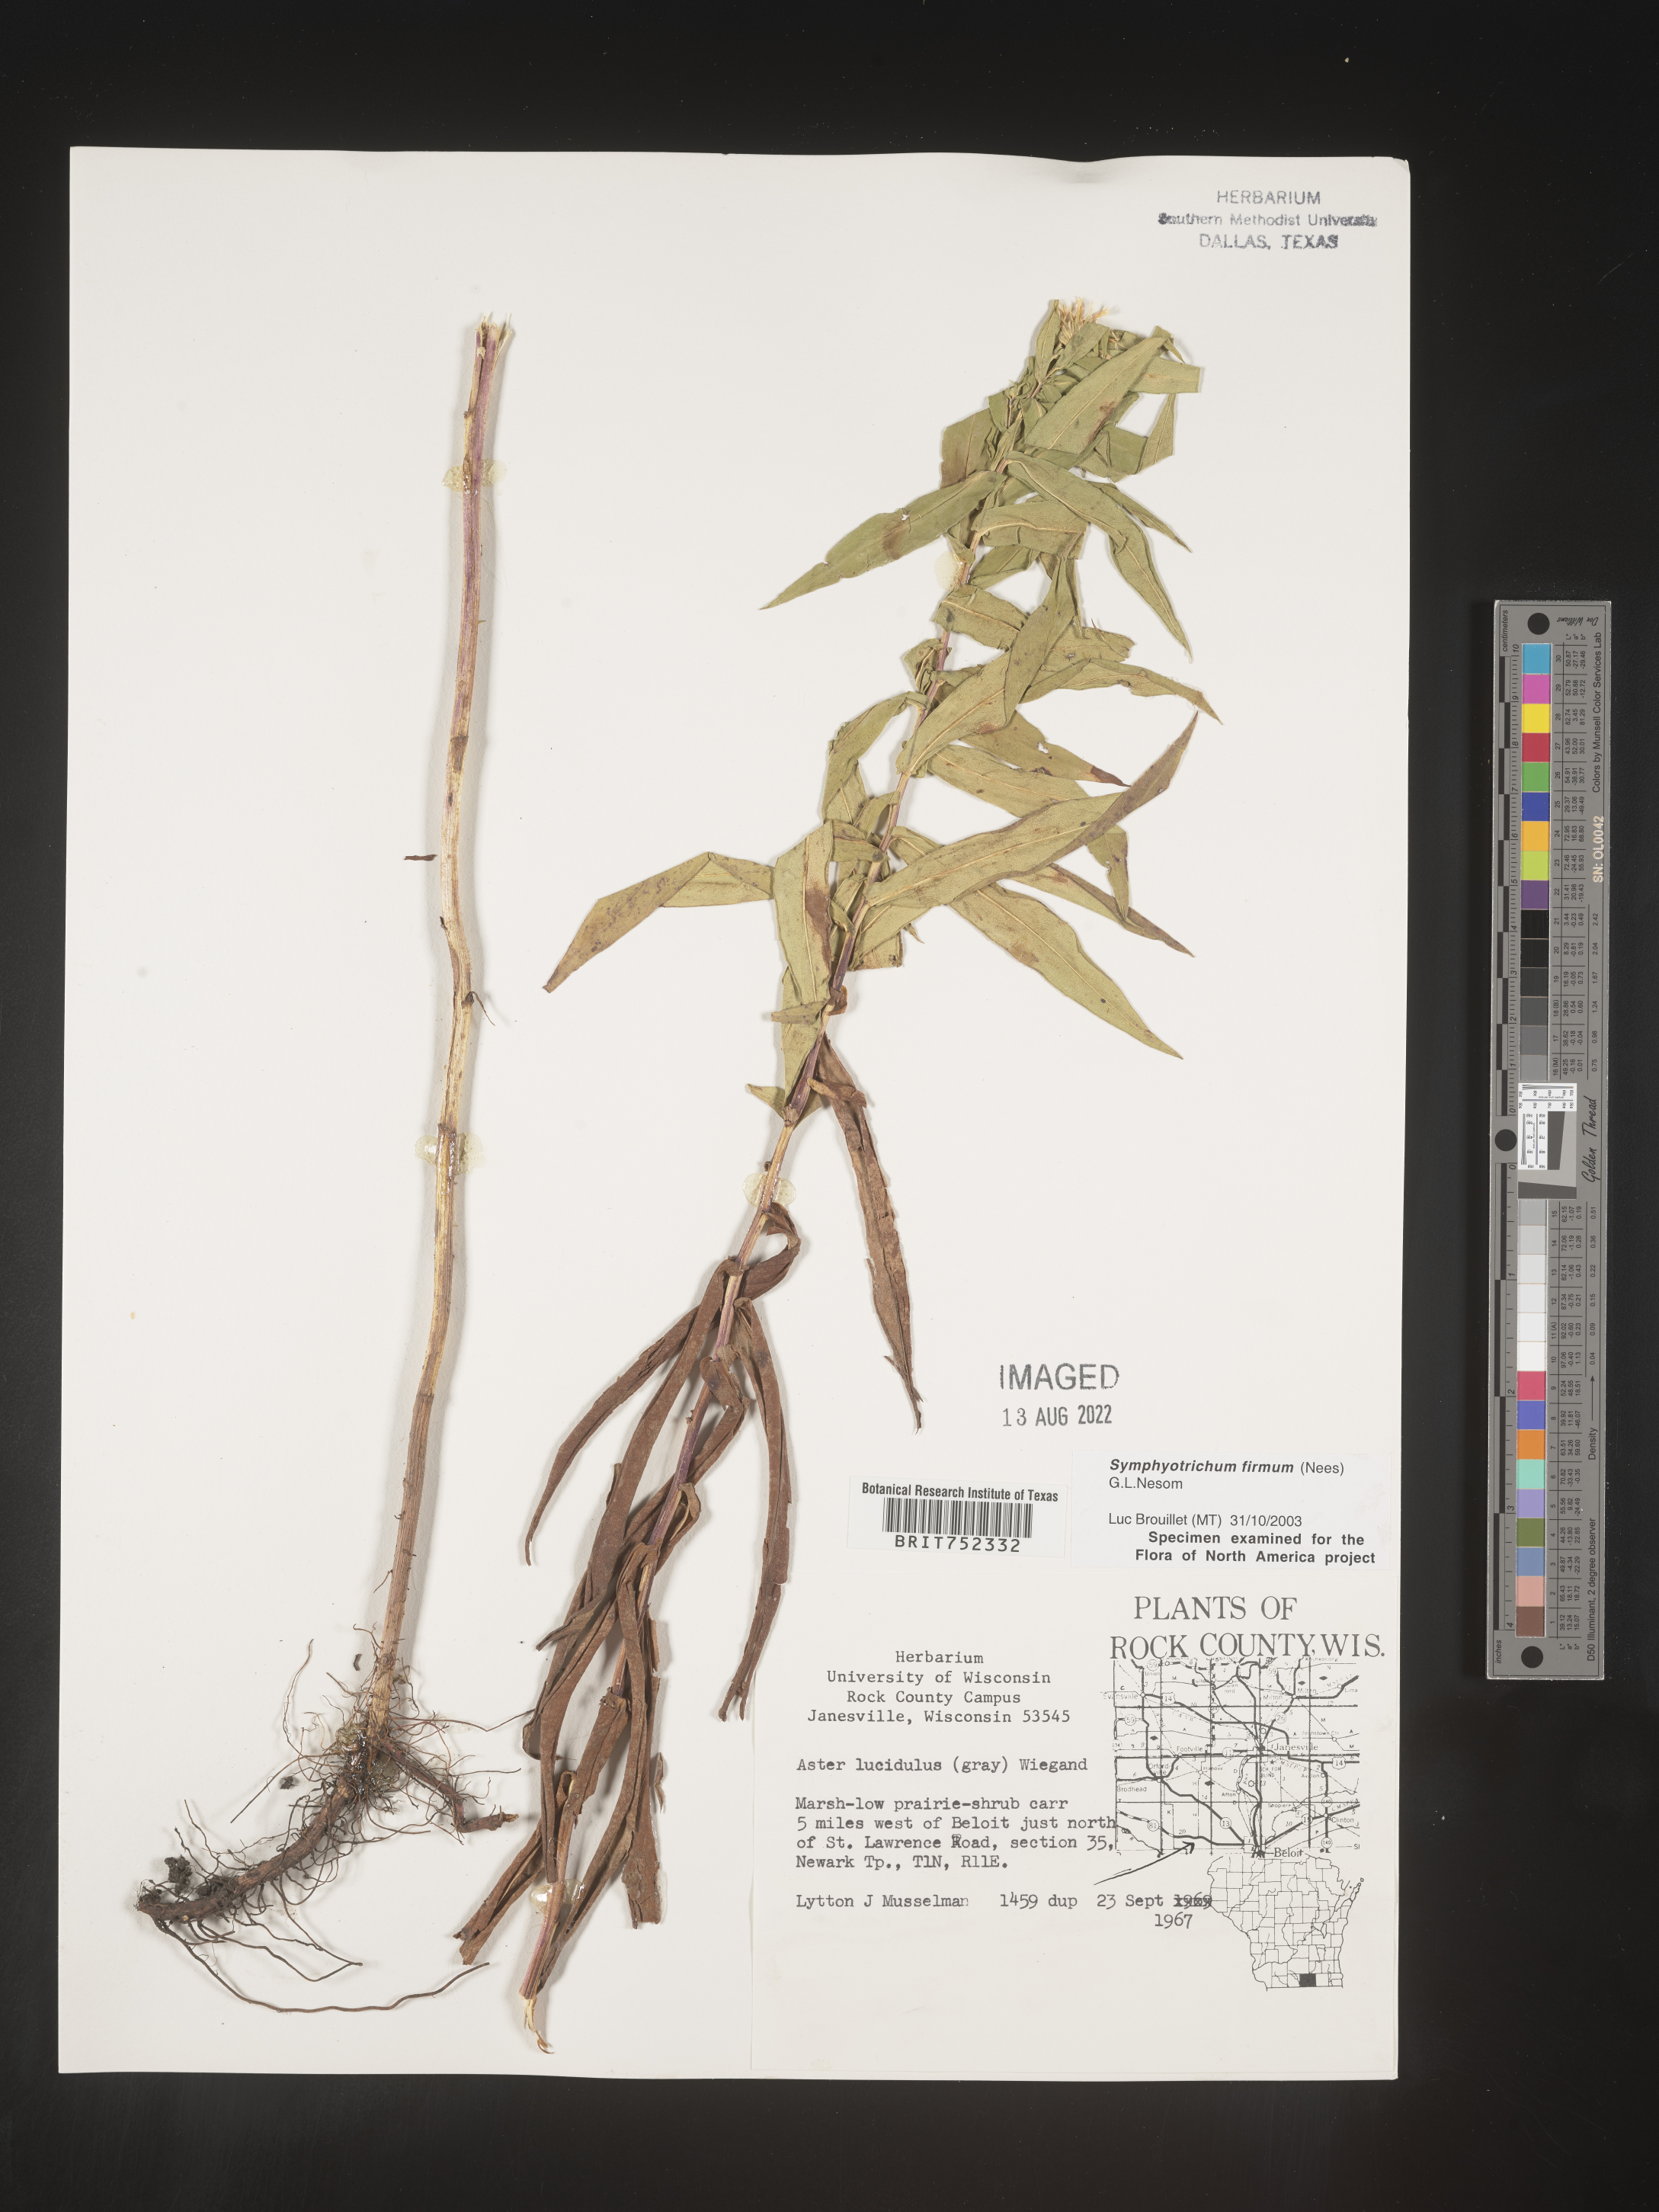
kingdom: Plantae
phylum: Tracheophyta
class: Magnoliopsida
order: Asterales
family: Asteraceae
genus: Symphyotrichum
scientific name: Symphyotrichum firmum
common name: Shining aster
